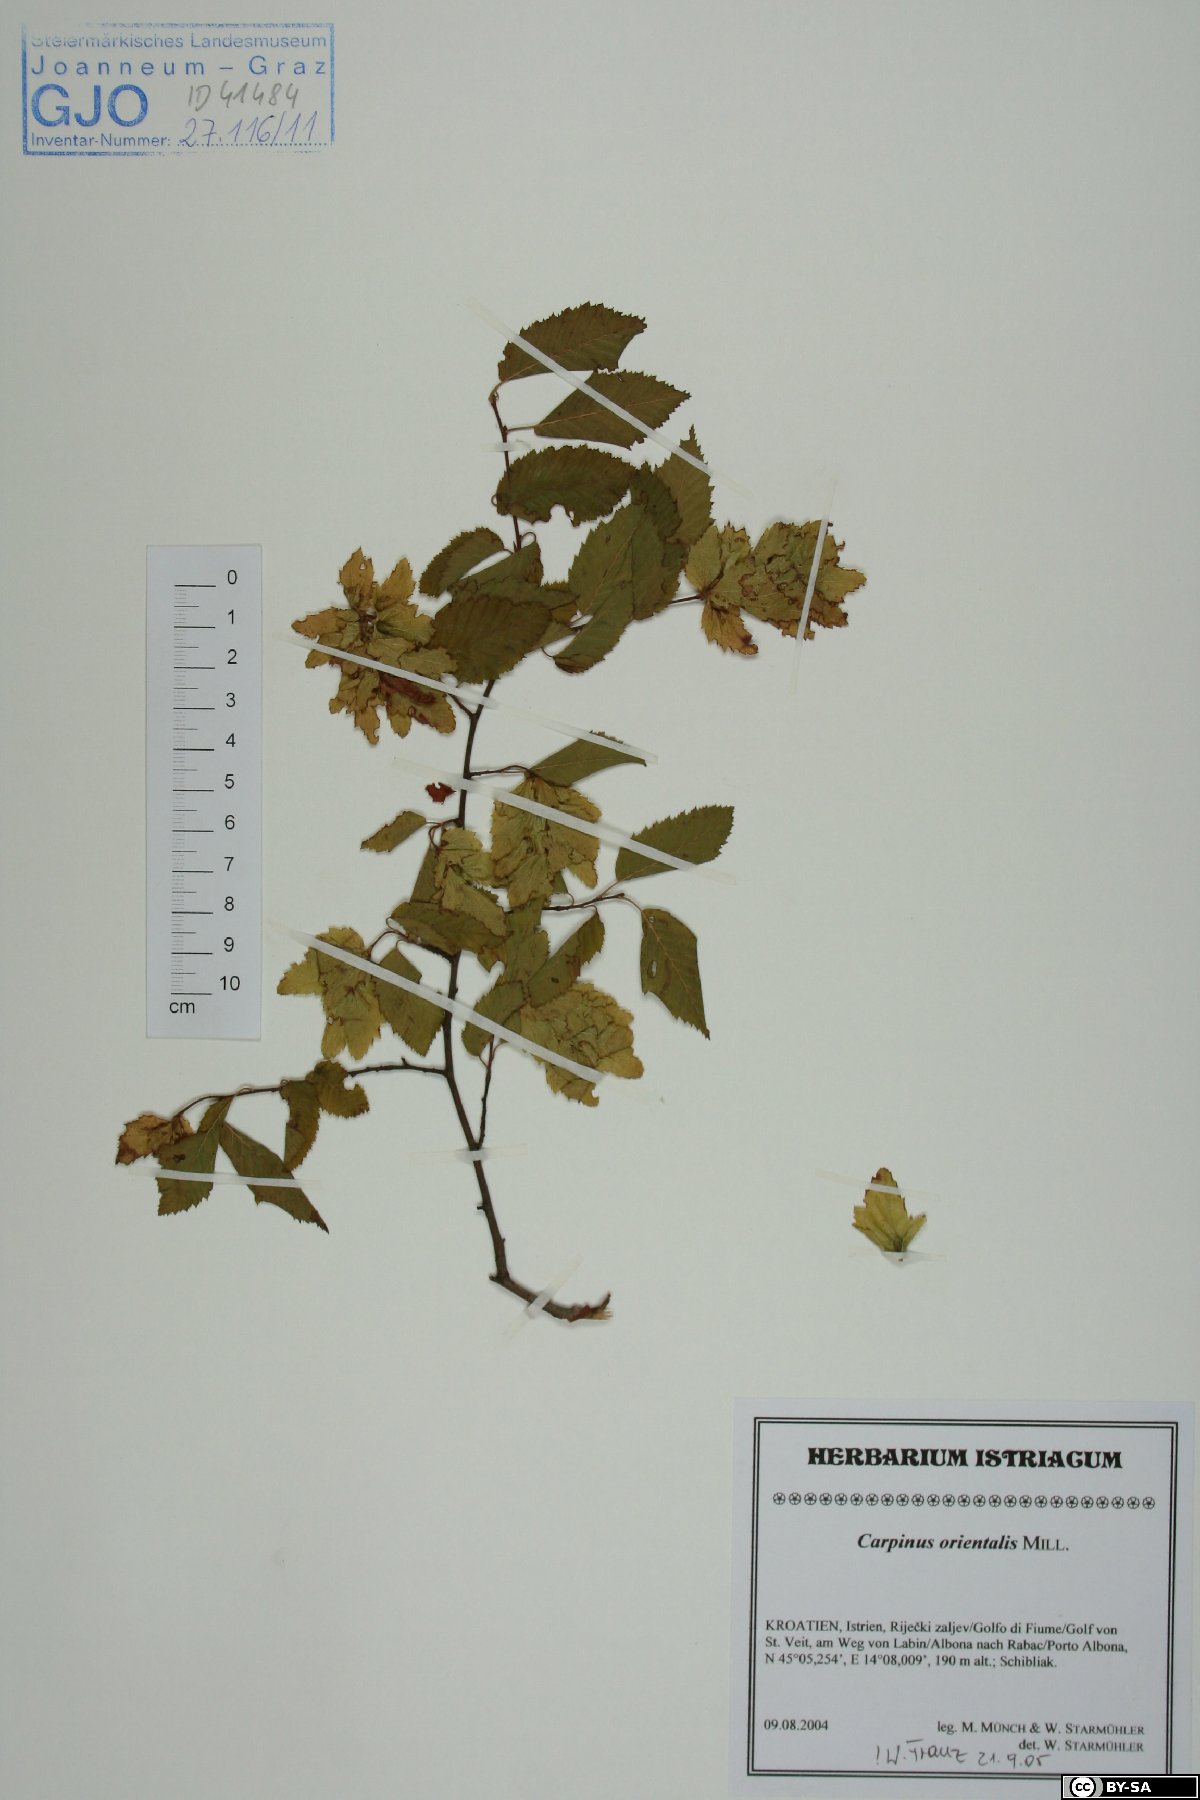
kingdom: Plantae
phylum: Tracheophyta
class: Magnoliopsida
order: Fagales
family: Betulaceae
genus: Carpinus
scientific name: Carpinus orientalis
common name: Eastern hornbeam
